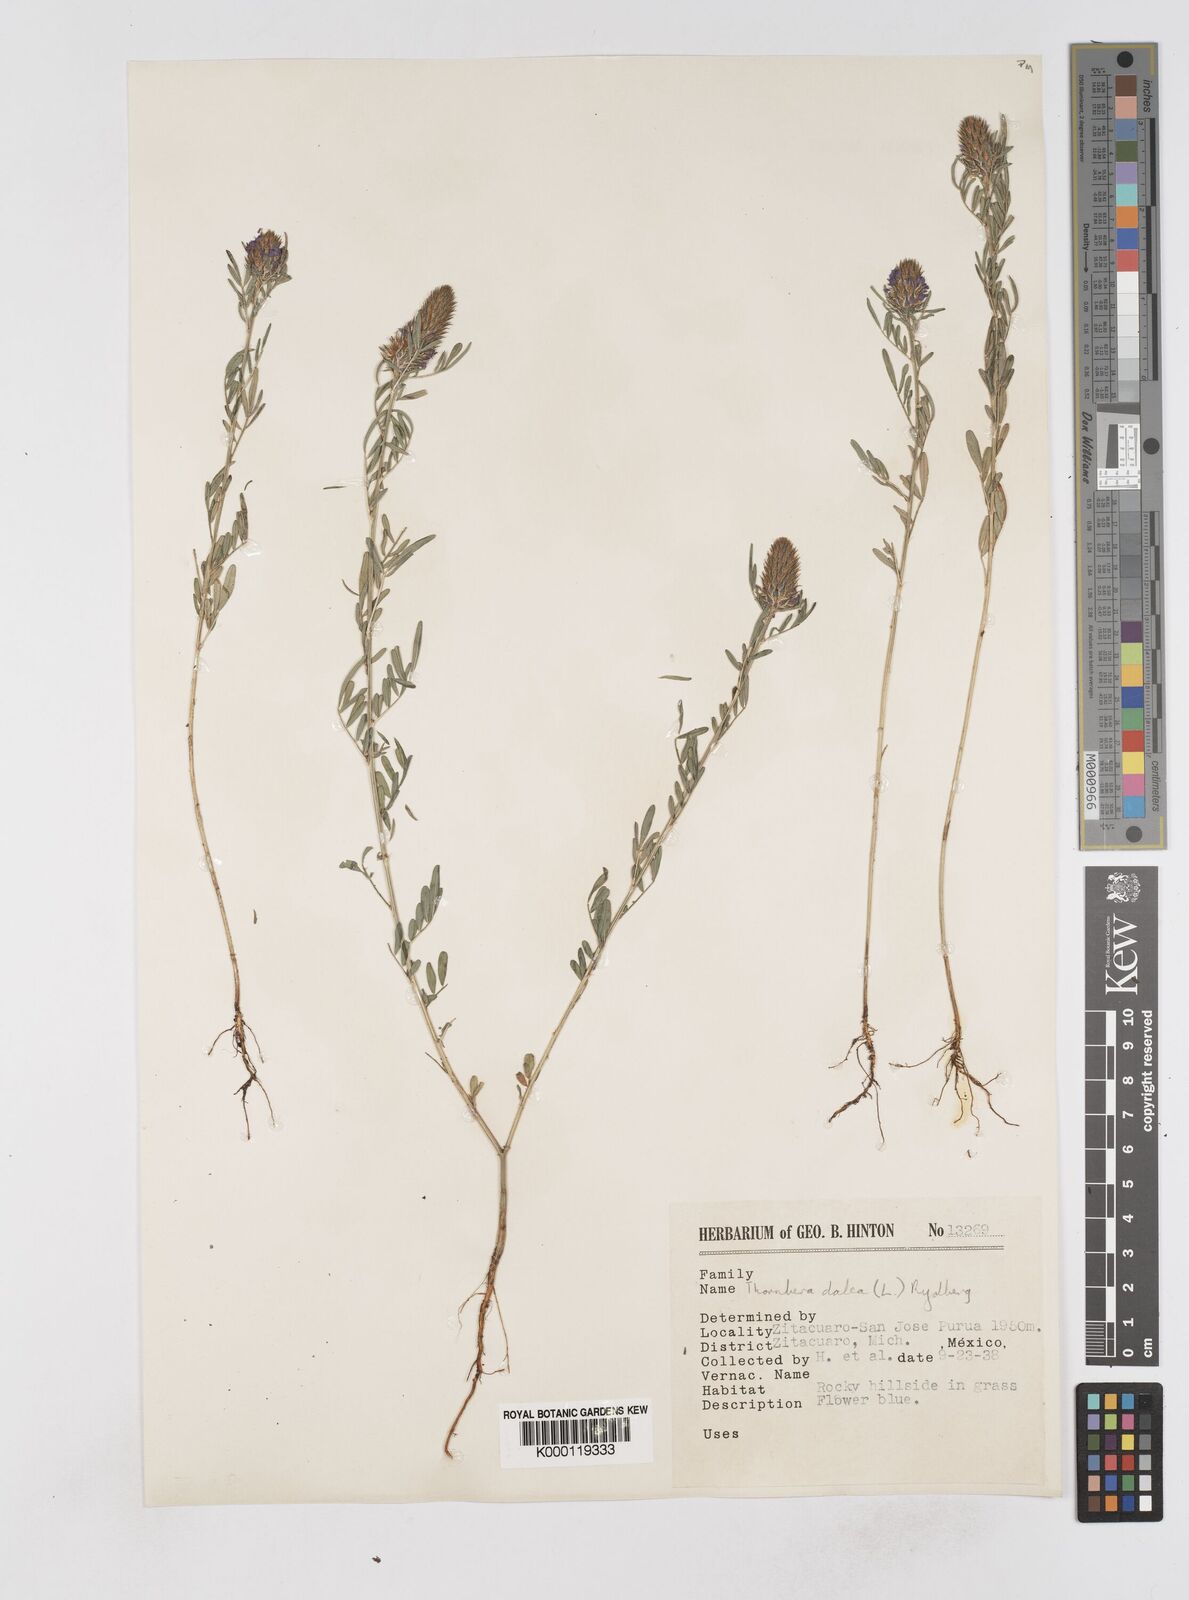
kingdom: Plantae
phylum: Tracheophyta
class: Magnoliopsida
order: Fabales
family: Fabaceae
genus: Dalea
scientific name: Dalea cliffortiana
